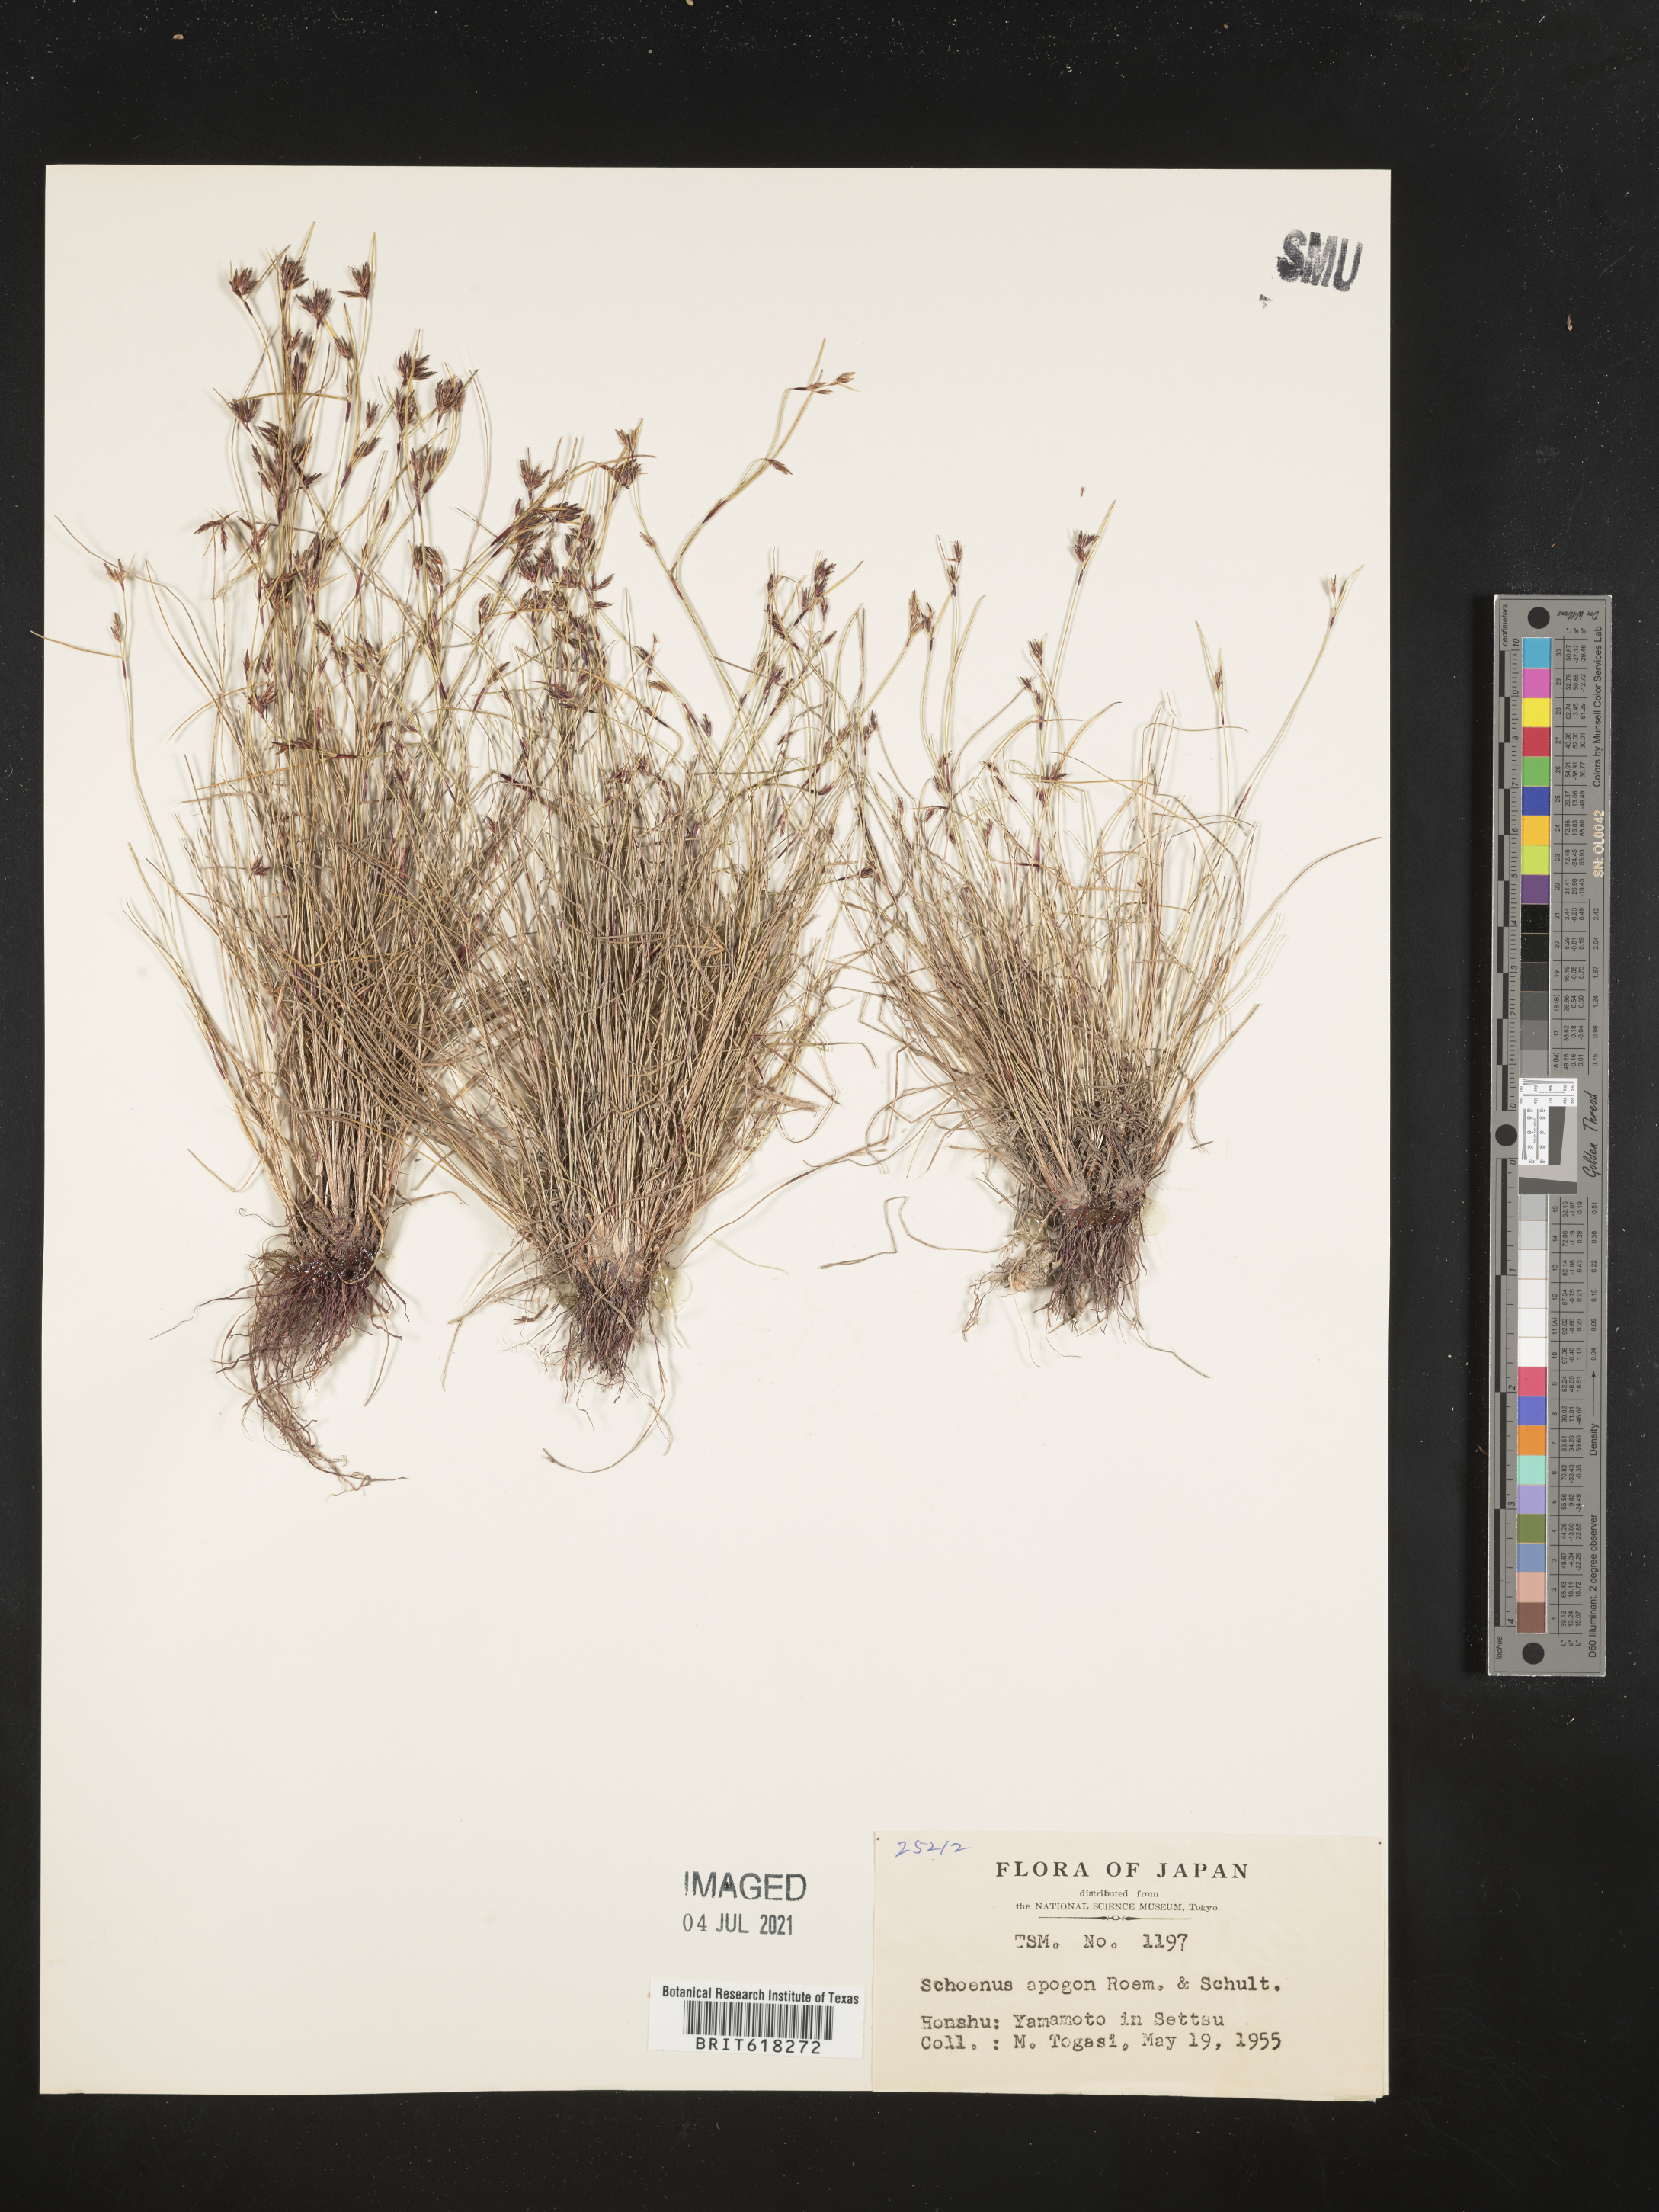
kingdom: Plantae
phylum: Tracheophyta
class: Liliopsida
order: Poales
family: Cyperaceae
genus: Schoenus
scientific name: Schoenus apogon
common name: Smooth bogrush
